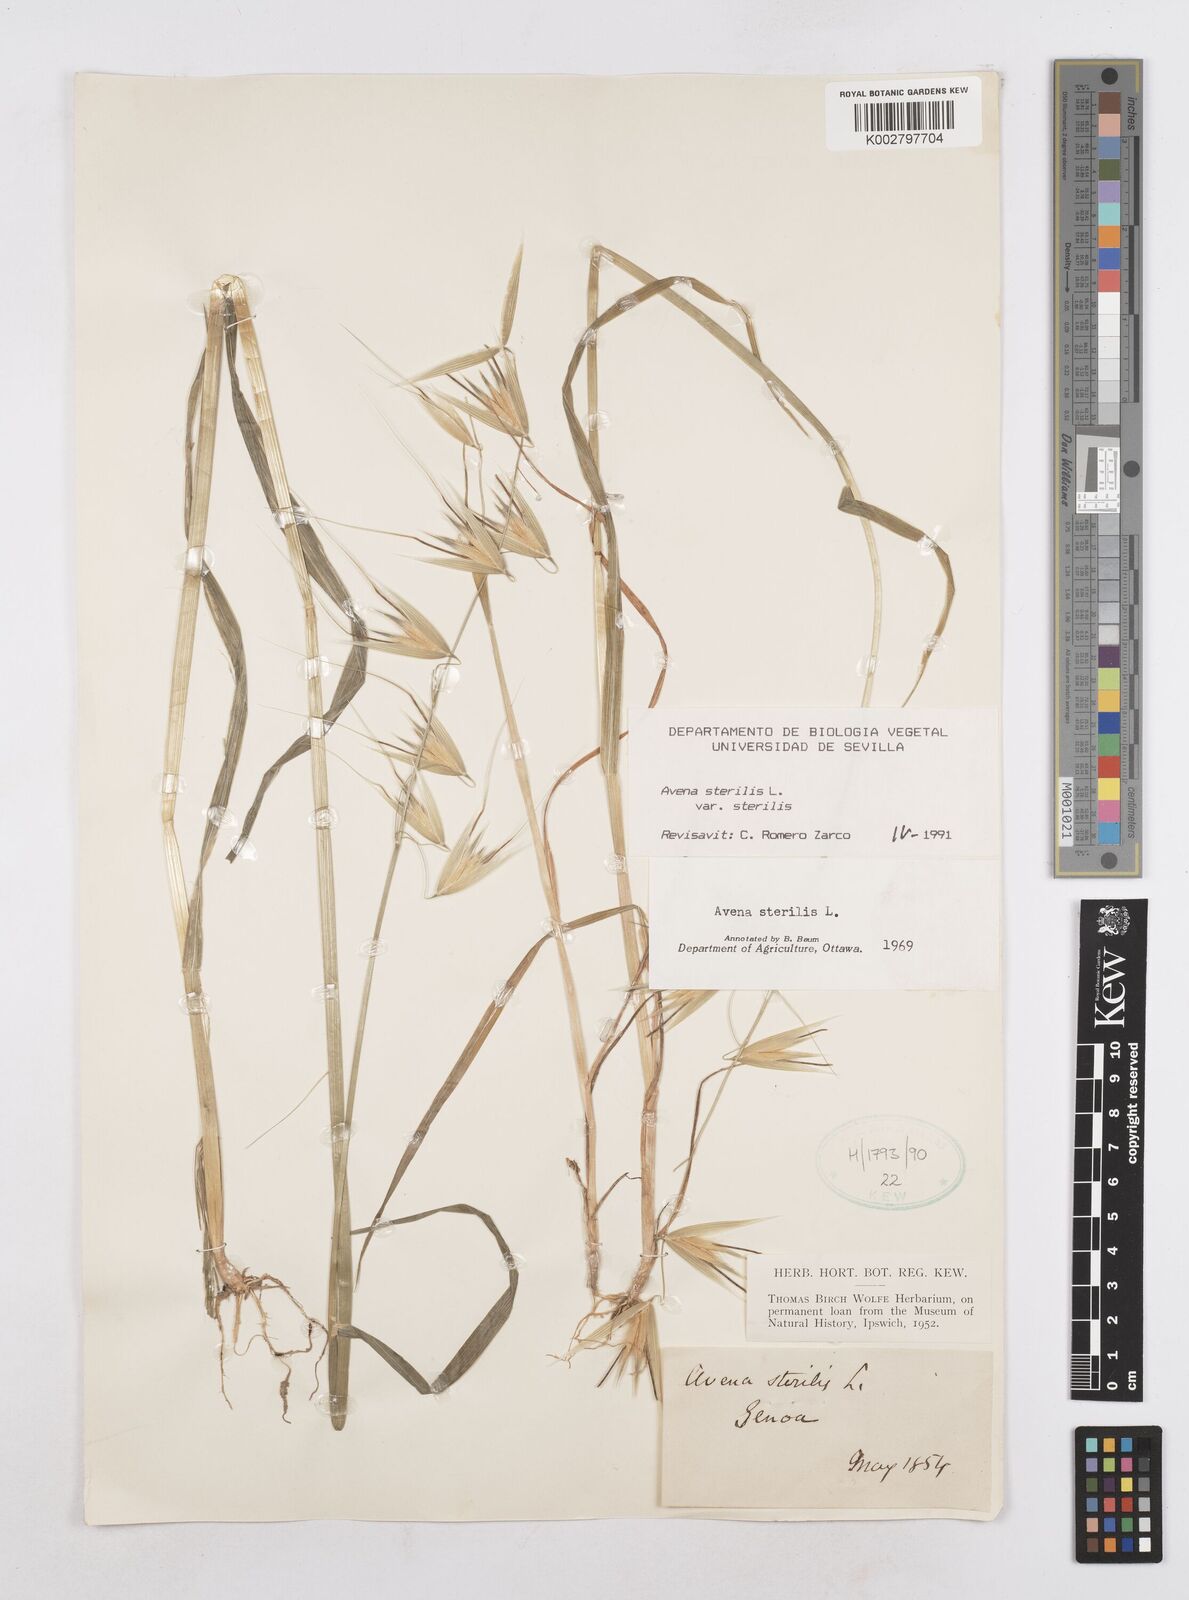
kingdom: Plantae
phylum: Tracheophyta
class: Liliopsida
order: Poales
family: Poaceae
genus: Avena
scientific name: Avena sterilis
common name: Animated oat
